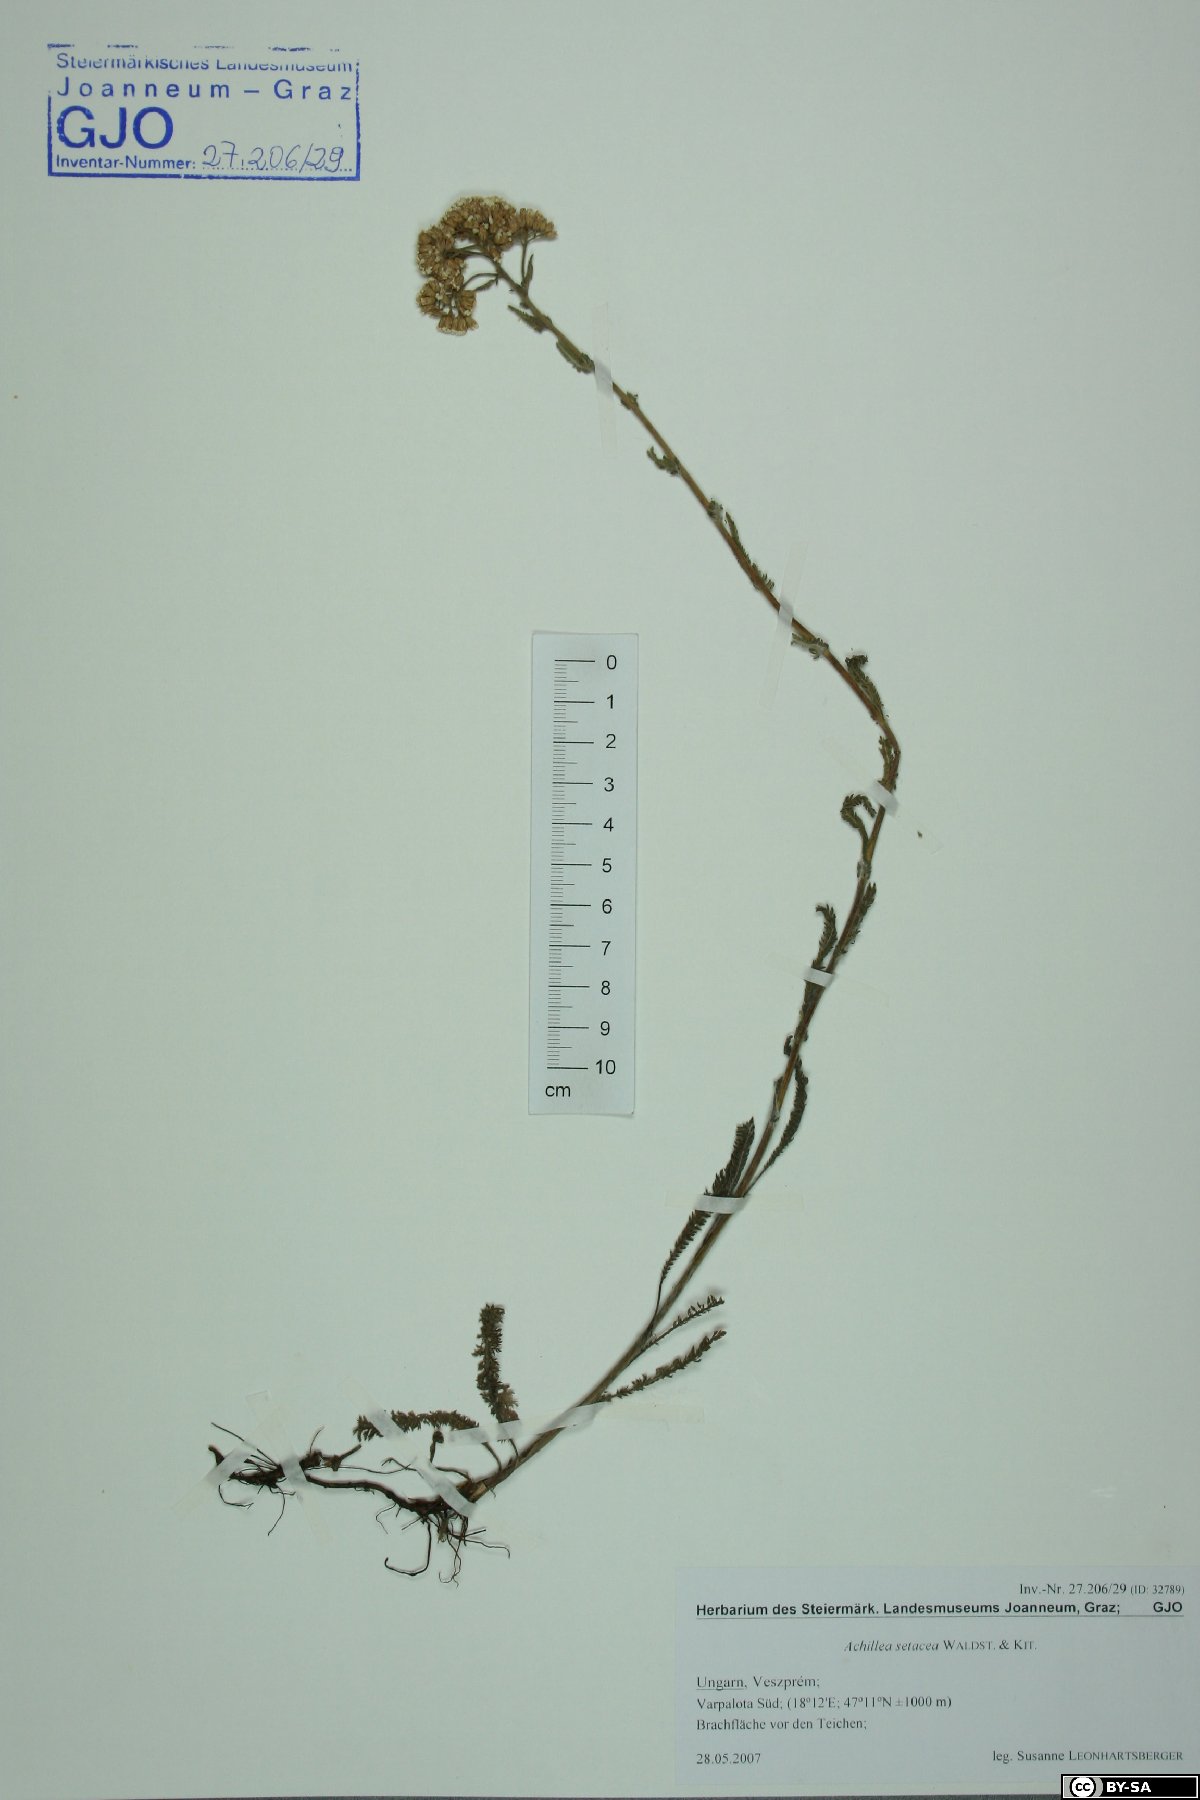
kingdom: Plantae
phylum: Tracheophyta
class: Magnoliopsida
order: Asterales
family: Asteraceae
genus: Achillea
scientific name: Achillea setacea
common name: Bristly yarrow
